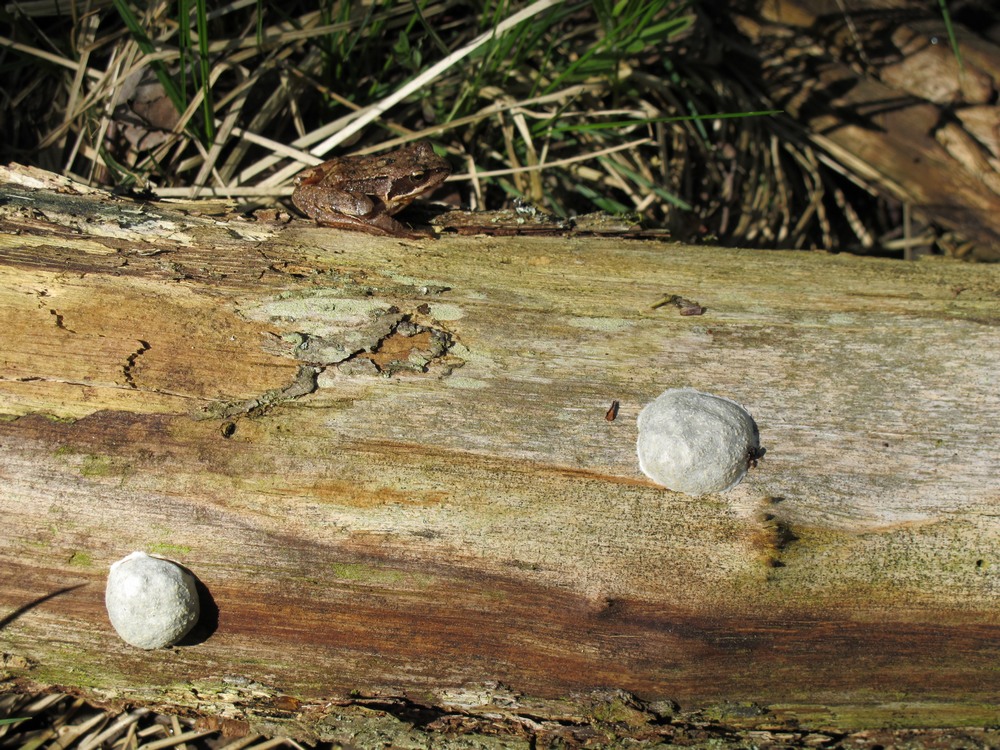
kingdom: Protozoa
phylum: Mycetozoa
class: Myxomycetes
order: Cribrariales
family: Tubiferaceae
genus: Reticularia
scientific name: Reticularia lycoperdon
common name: skinnende støvpude
